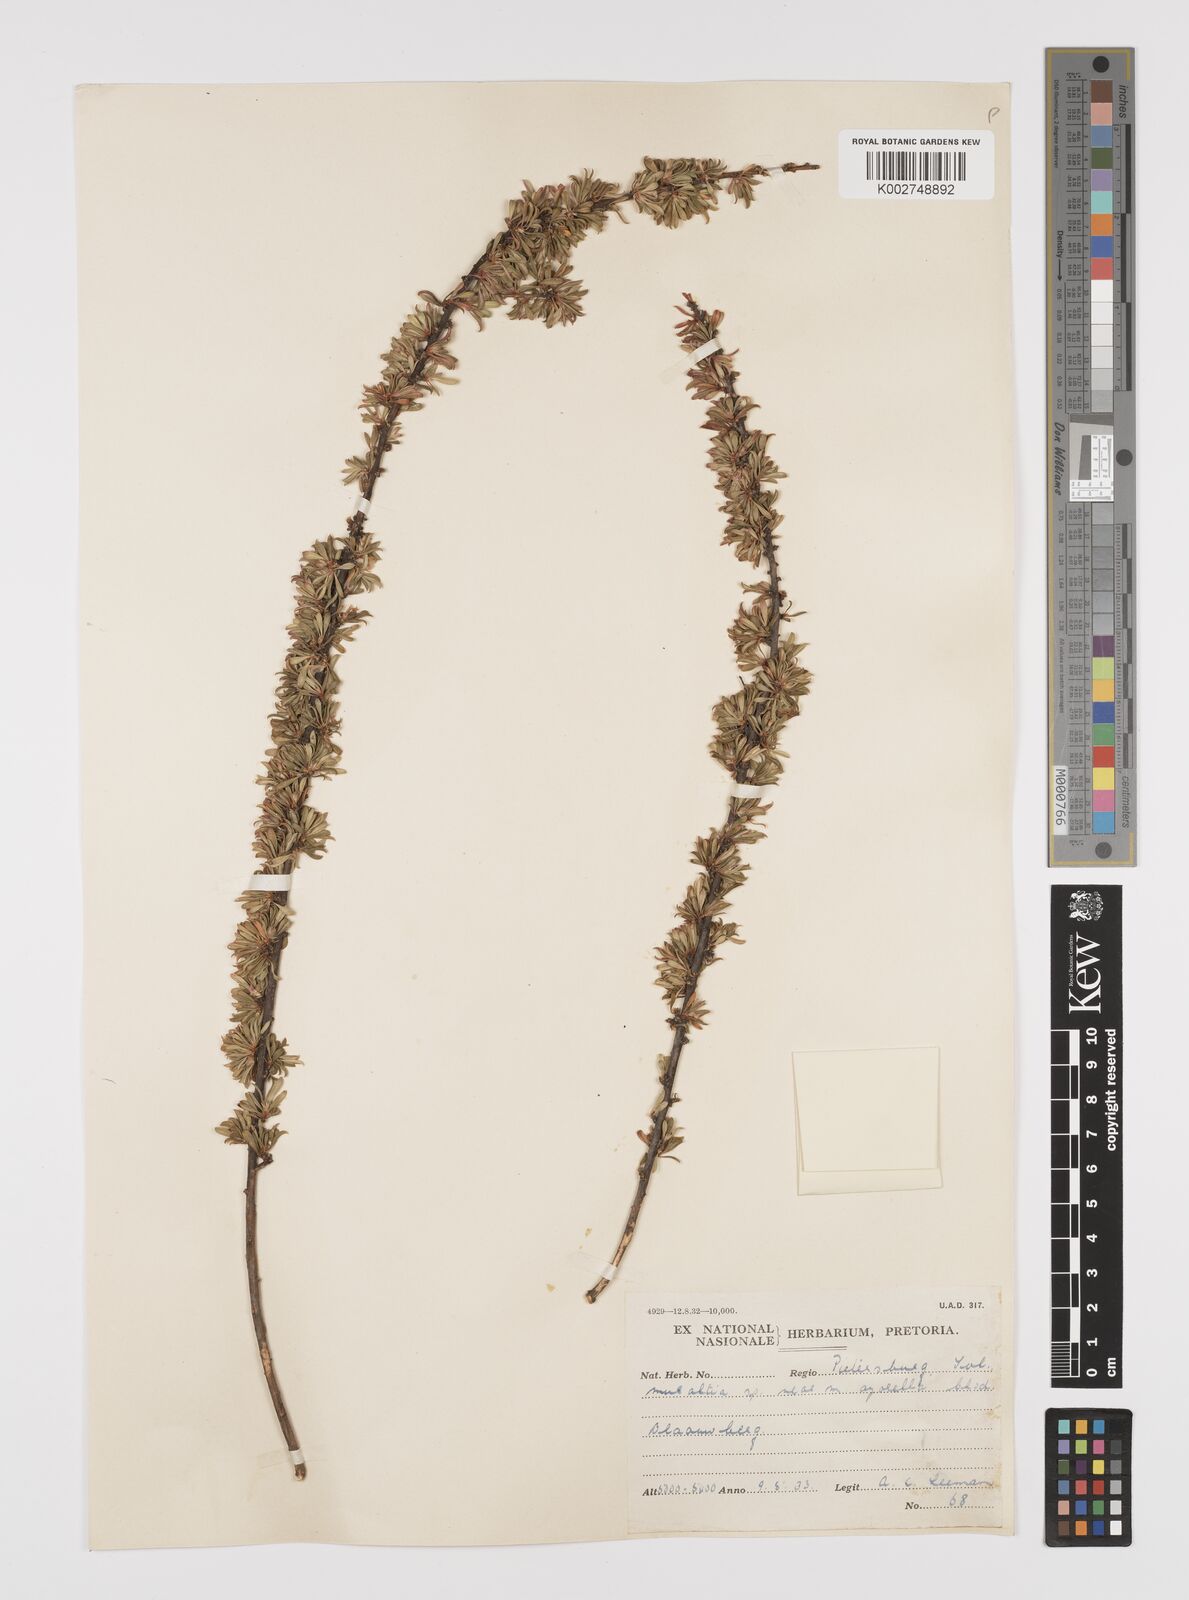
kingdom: Plantae
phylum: Tracheophyta
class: Magnoliopsida
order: Fabales
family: Polygalaceae
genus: Muraltia
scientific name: Muraltia saxicola
